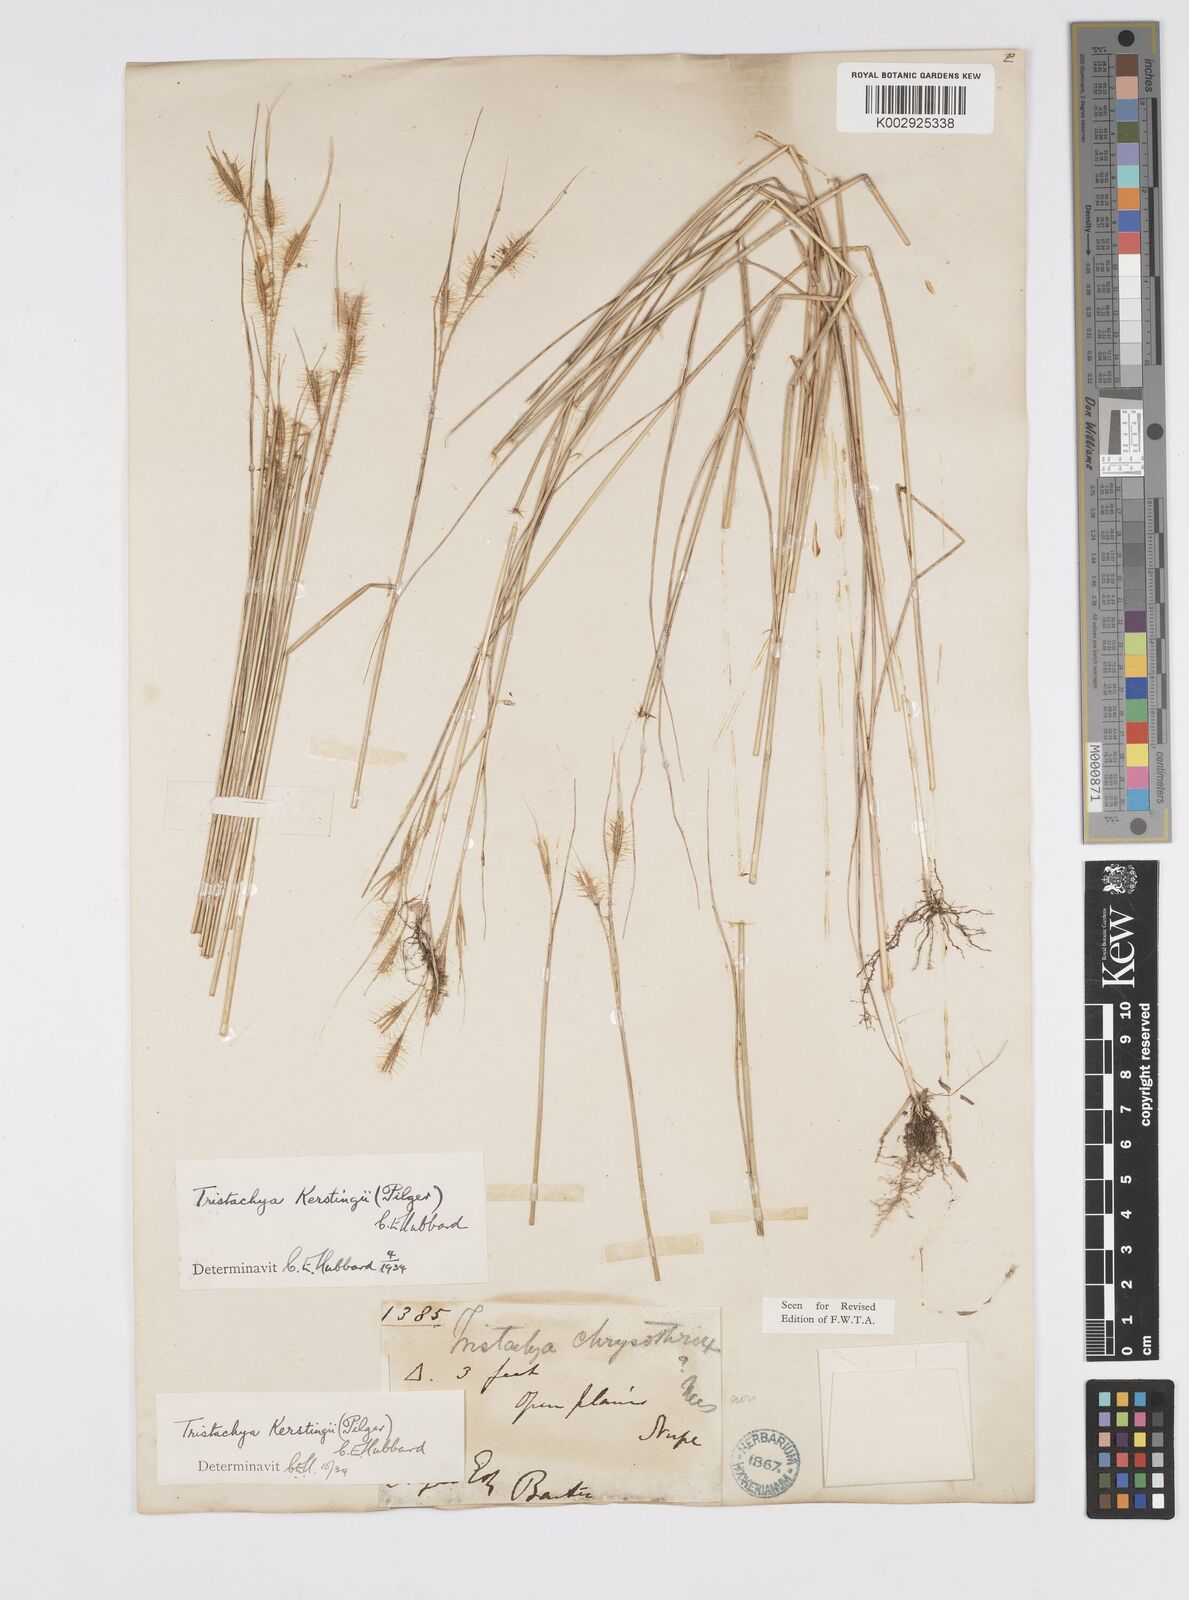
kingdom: Plantae
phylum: Tracheophyta
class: Liliopsida
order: Poales
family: Poaceae
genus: Loudetiopsis
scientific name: Loudetiopsis kerstingii
